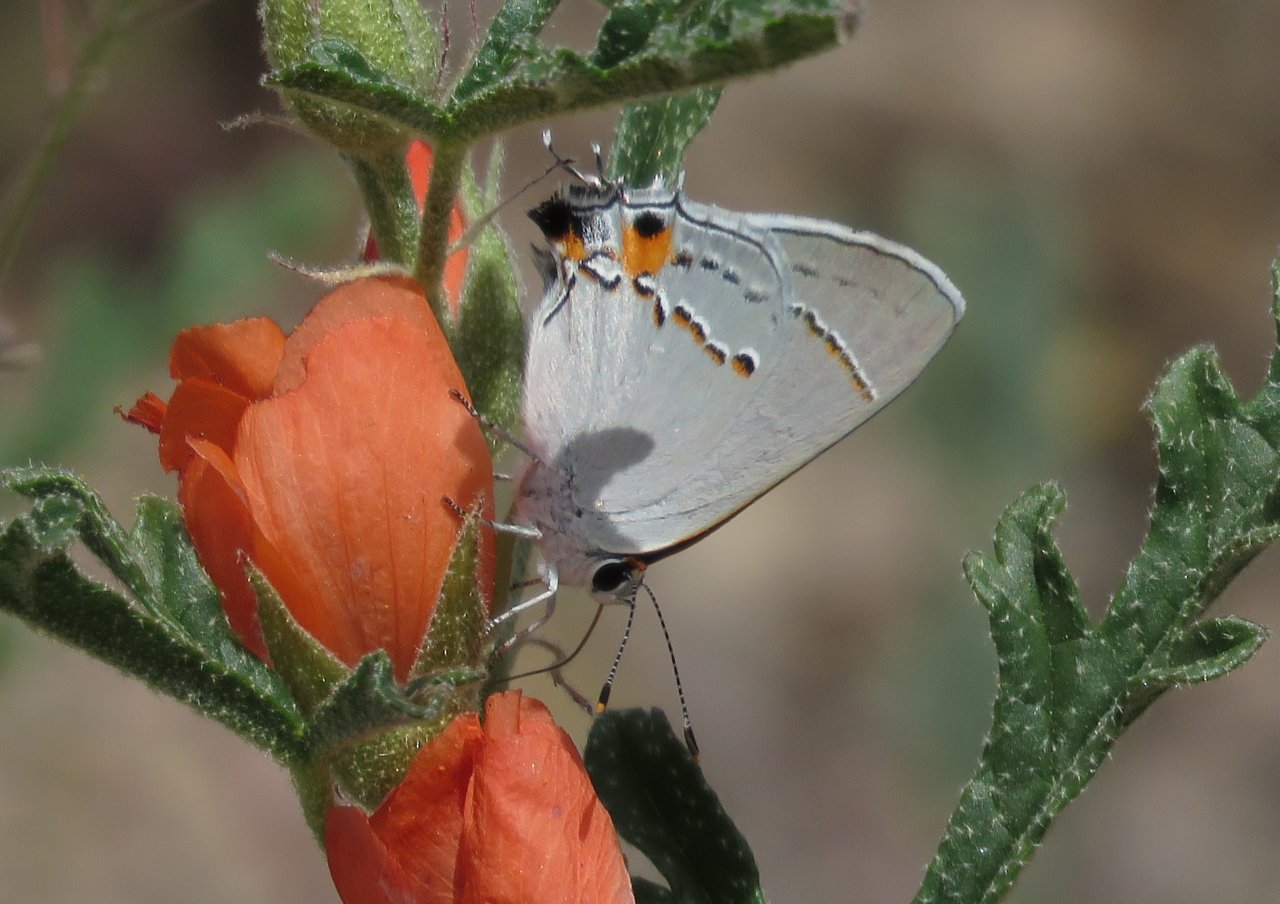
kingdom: Animalia
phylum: Arthropoda
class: Insecta
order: Lepidoptera
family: Lycaenidae
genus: Strymon
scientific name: Strymon melinus
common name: Gray Hairstreak
